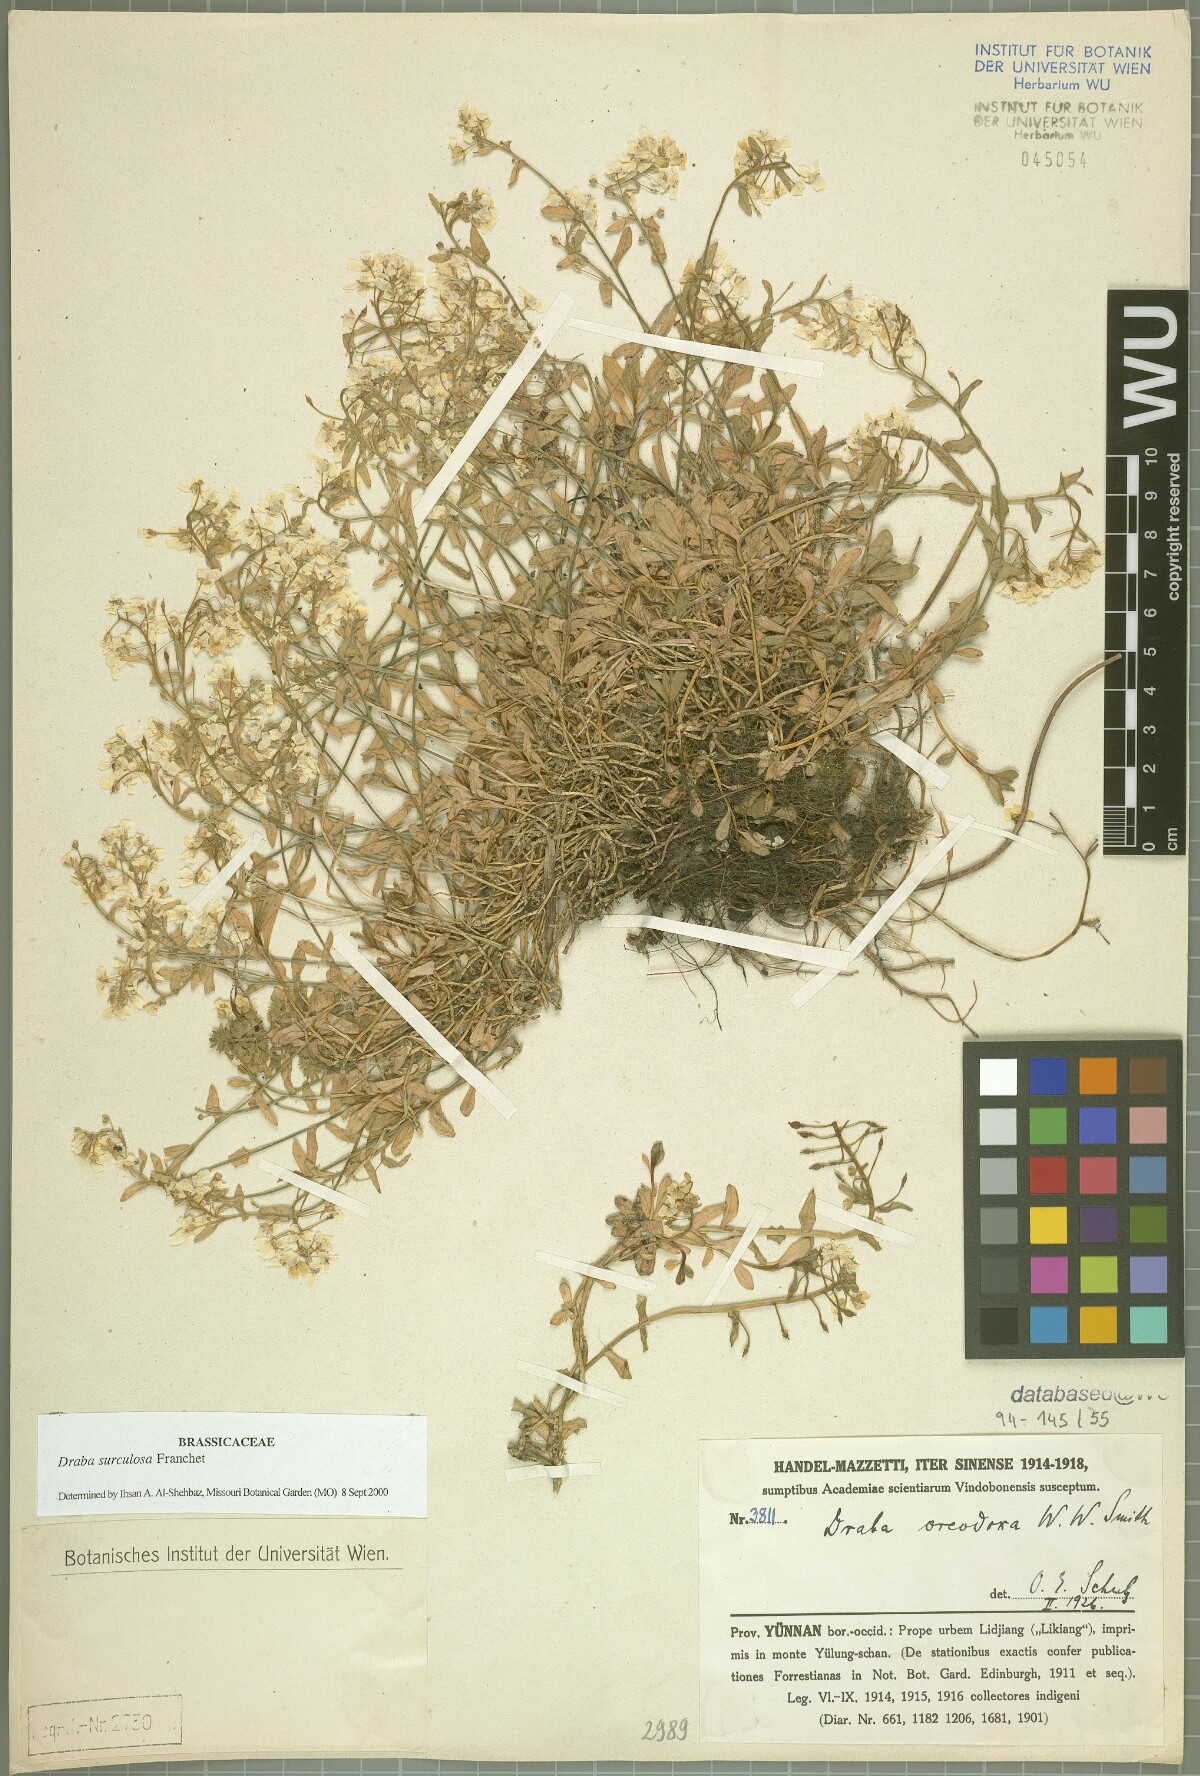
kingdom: Plantae
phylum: Tracheophyta
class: Magnoliopsida
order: Brassicales
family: Brassicaceae
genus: Draba
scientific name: Draba surculosa
